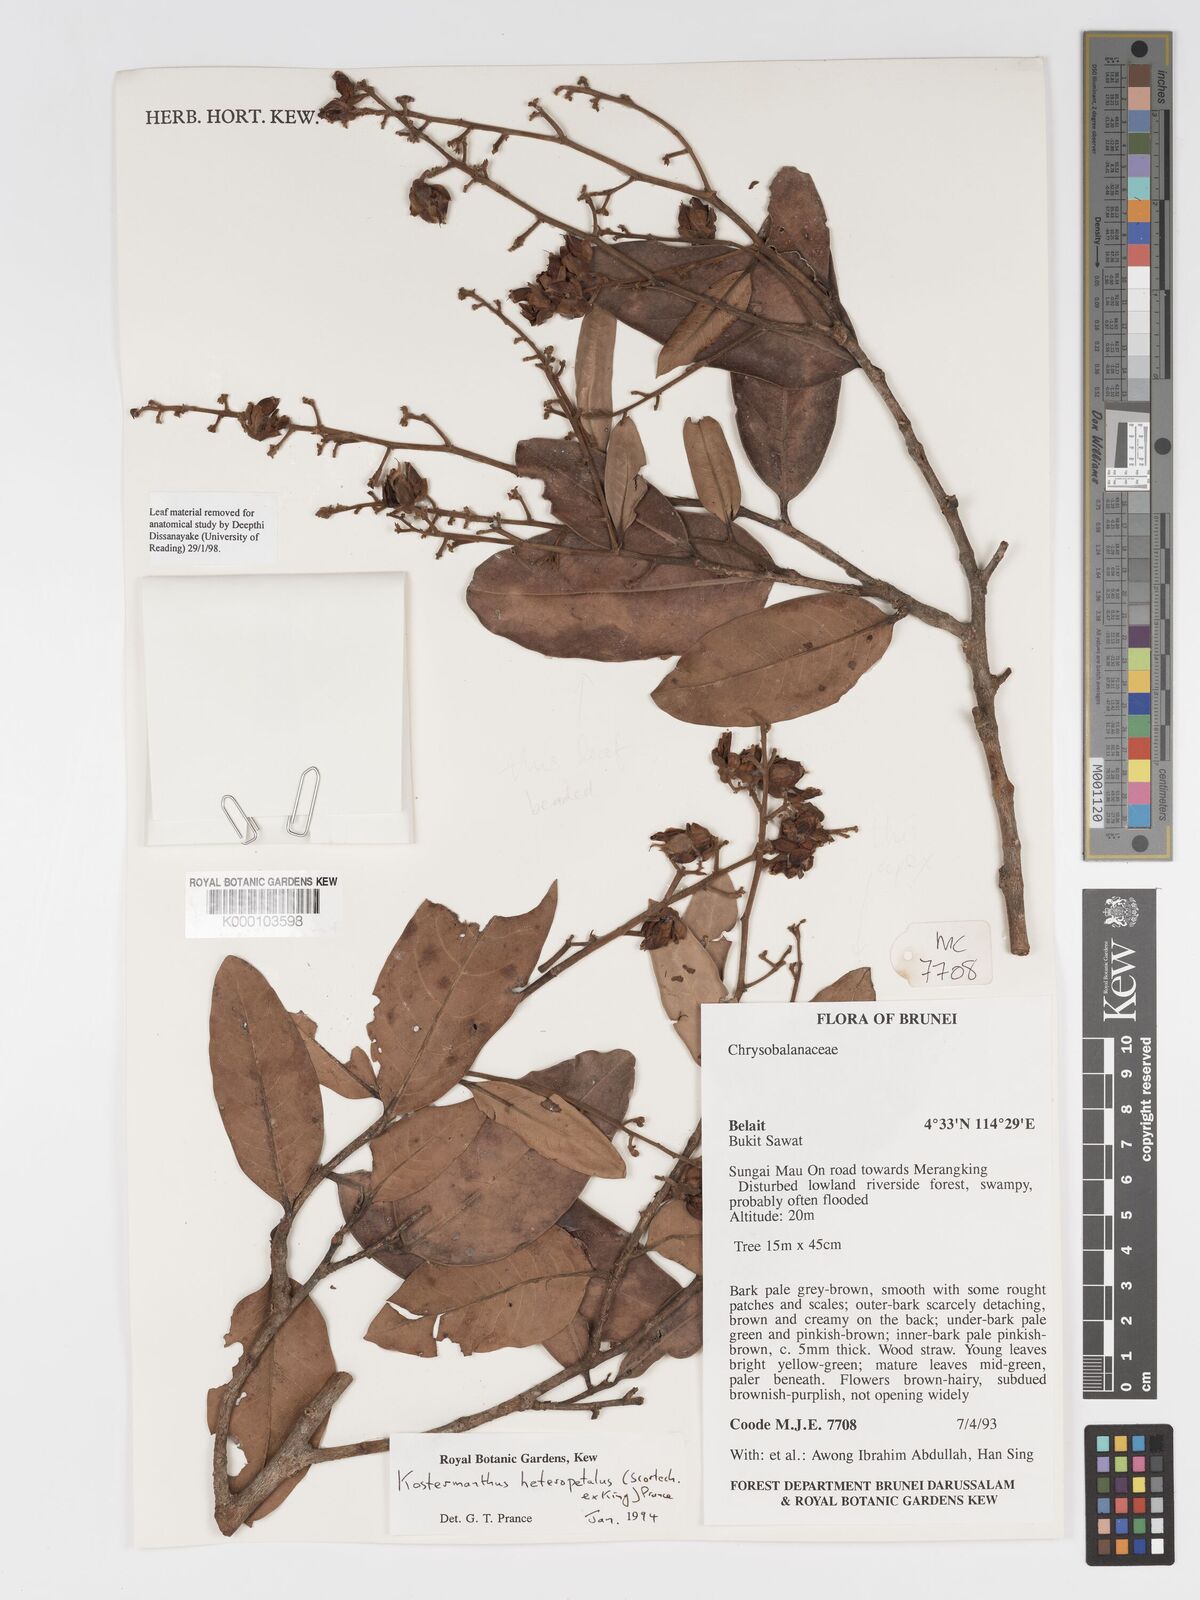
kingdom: Plantae
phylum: Tracheophyta
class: Magnoliopsida
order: Malpighiales
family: Chrysobalanaceae
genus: Kostermanthus
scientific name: Kostermanthus heteropetalus
